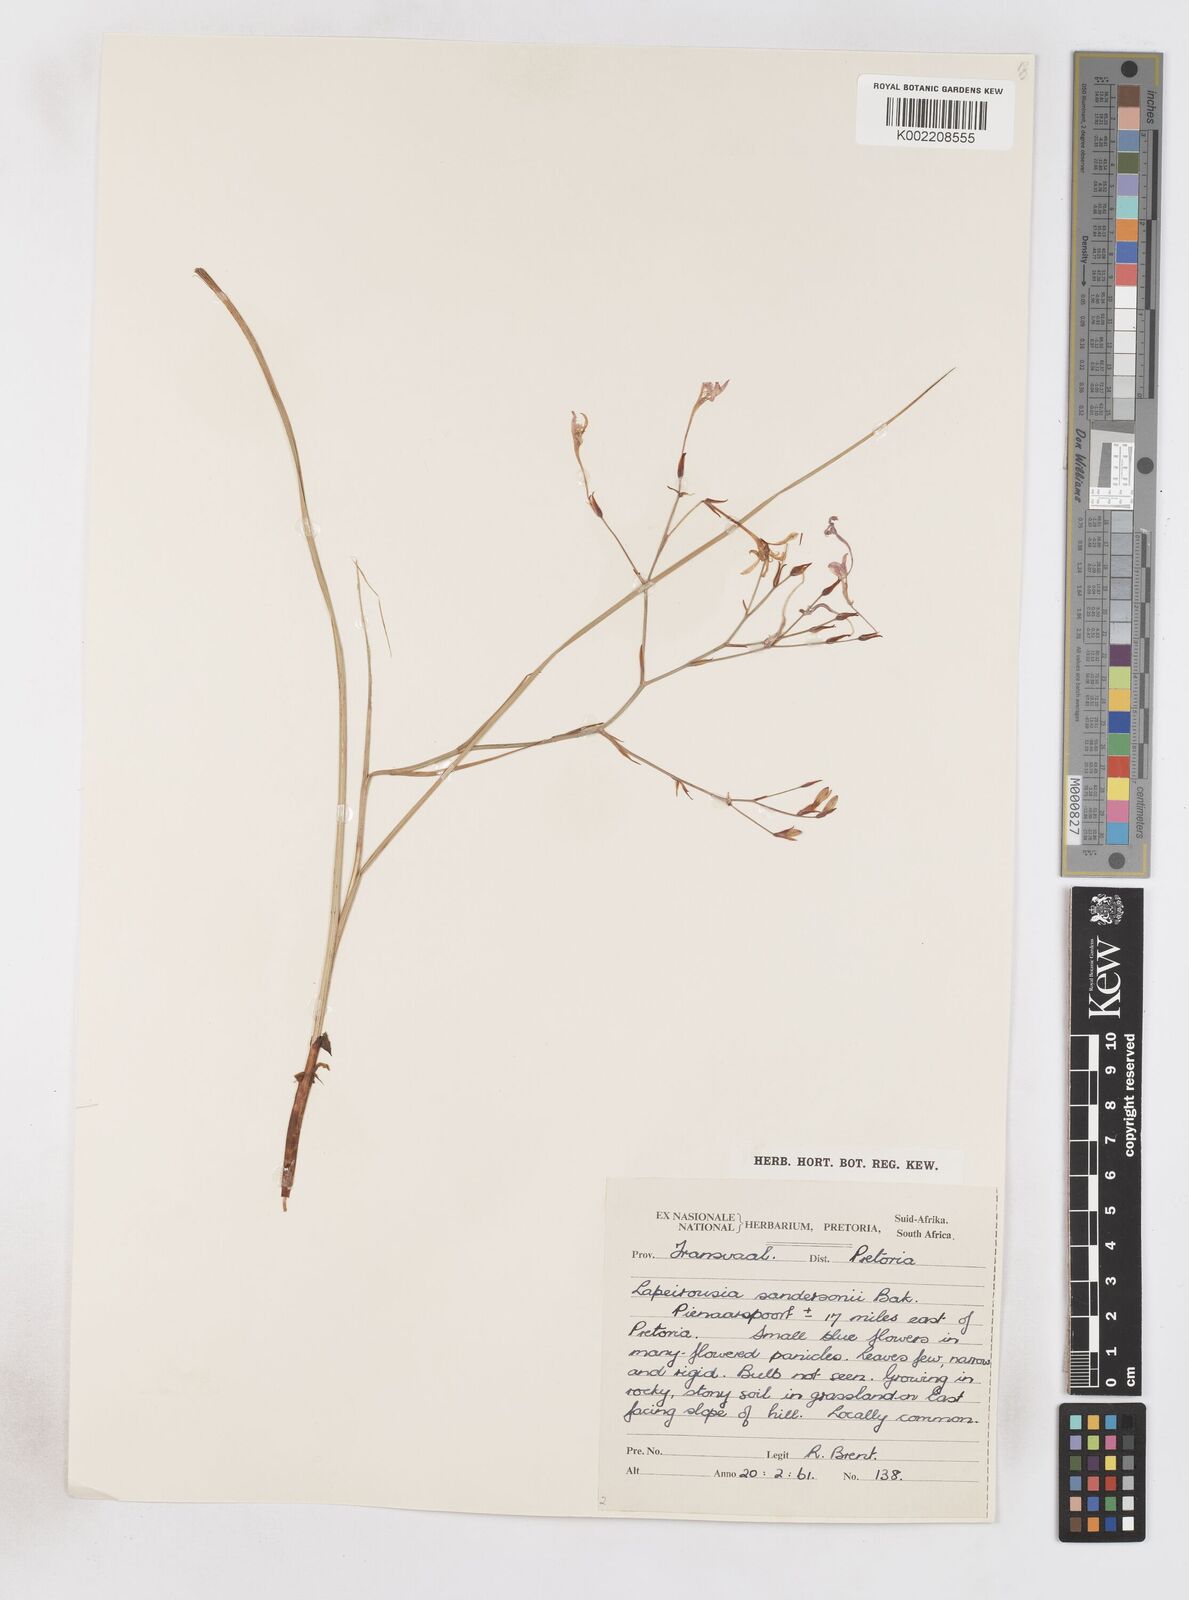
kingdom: Plantae
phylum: Tracheophyta
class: Liliopsida
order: Asparagales
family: Iridaceae
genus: Afrosolen
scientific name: Afrosolen sandersonii
